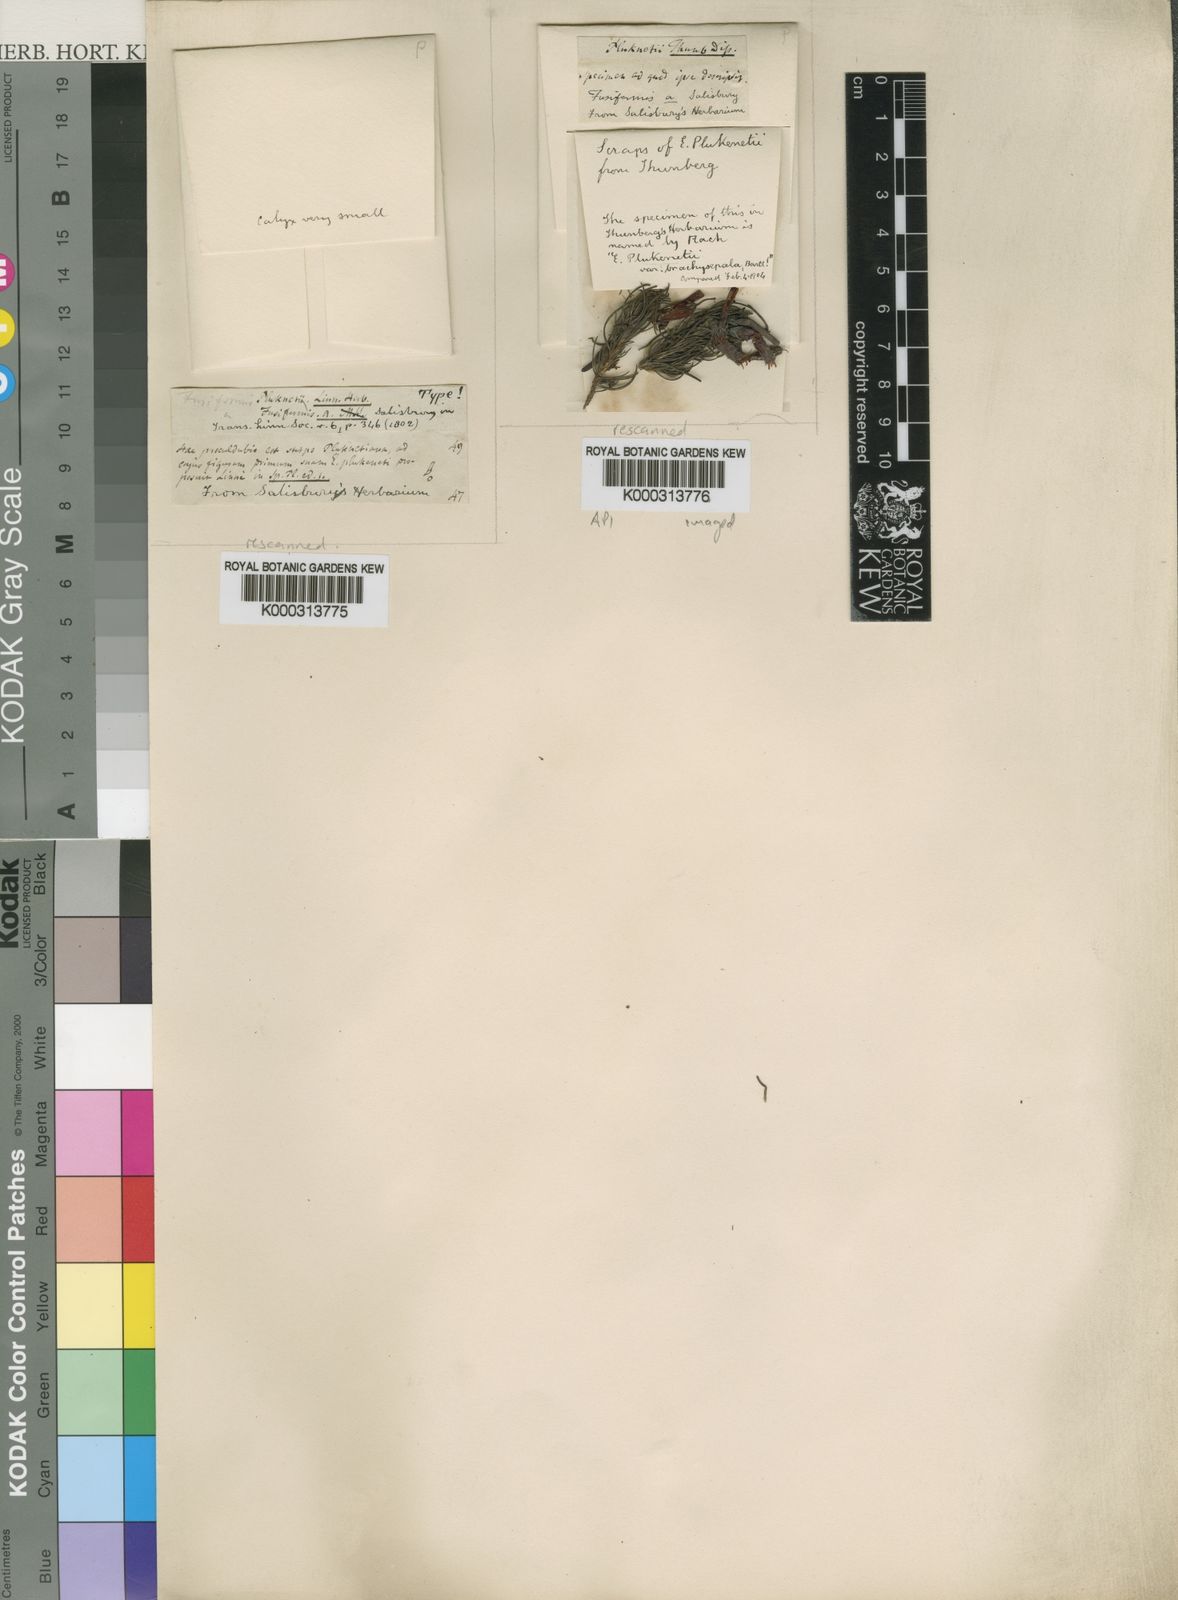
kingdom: Plantae
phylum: Tracheophyta
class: Magnoliopsida
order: Ericales
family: Ericaceae
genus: Erica
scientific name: Erica plukenetii
